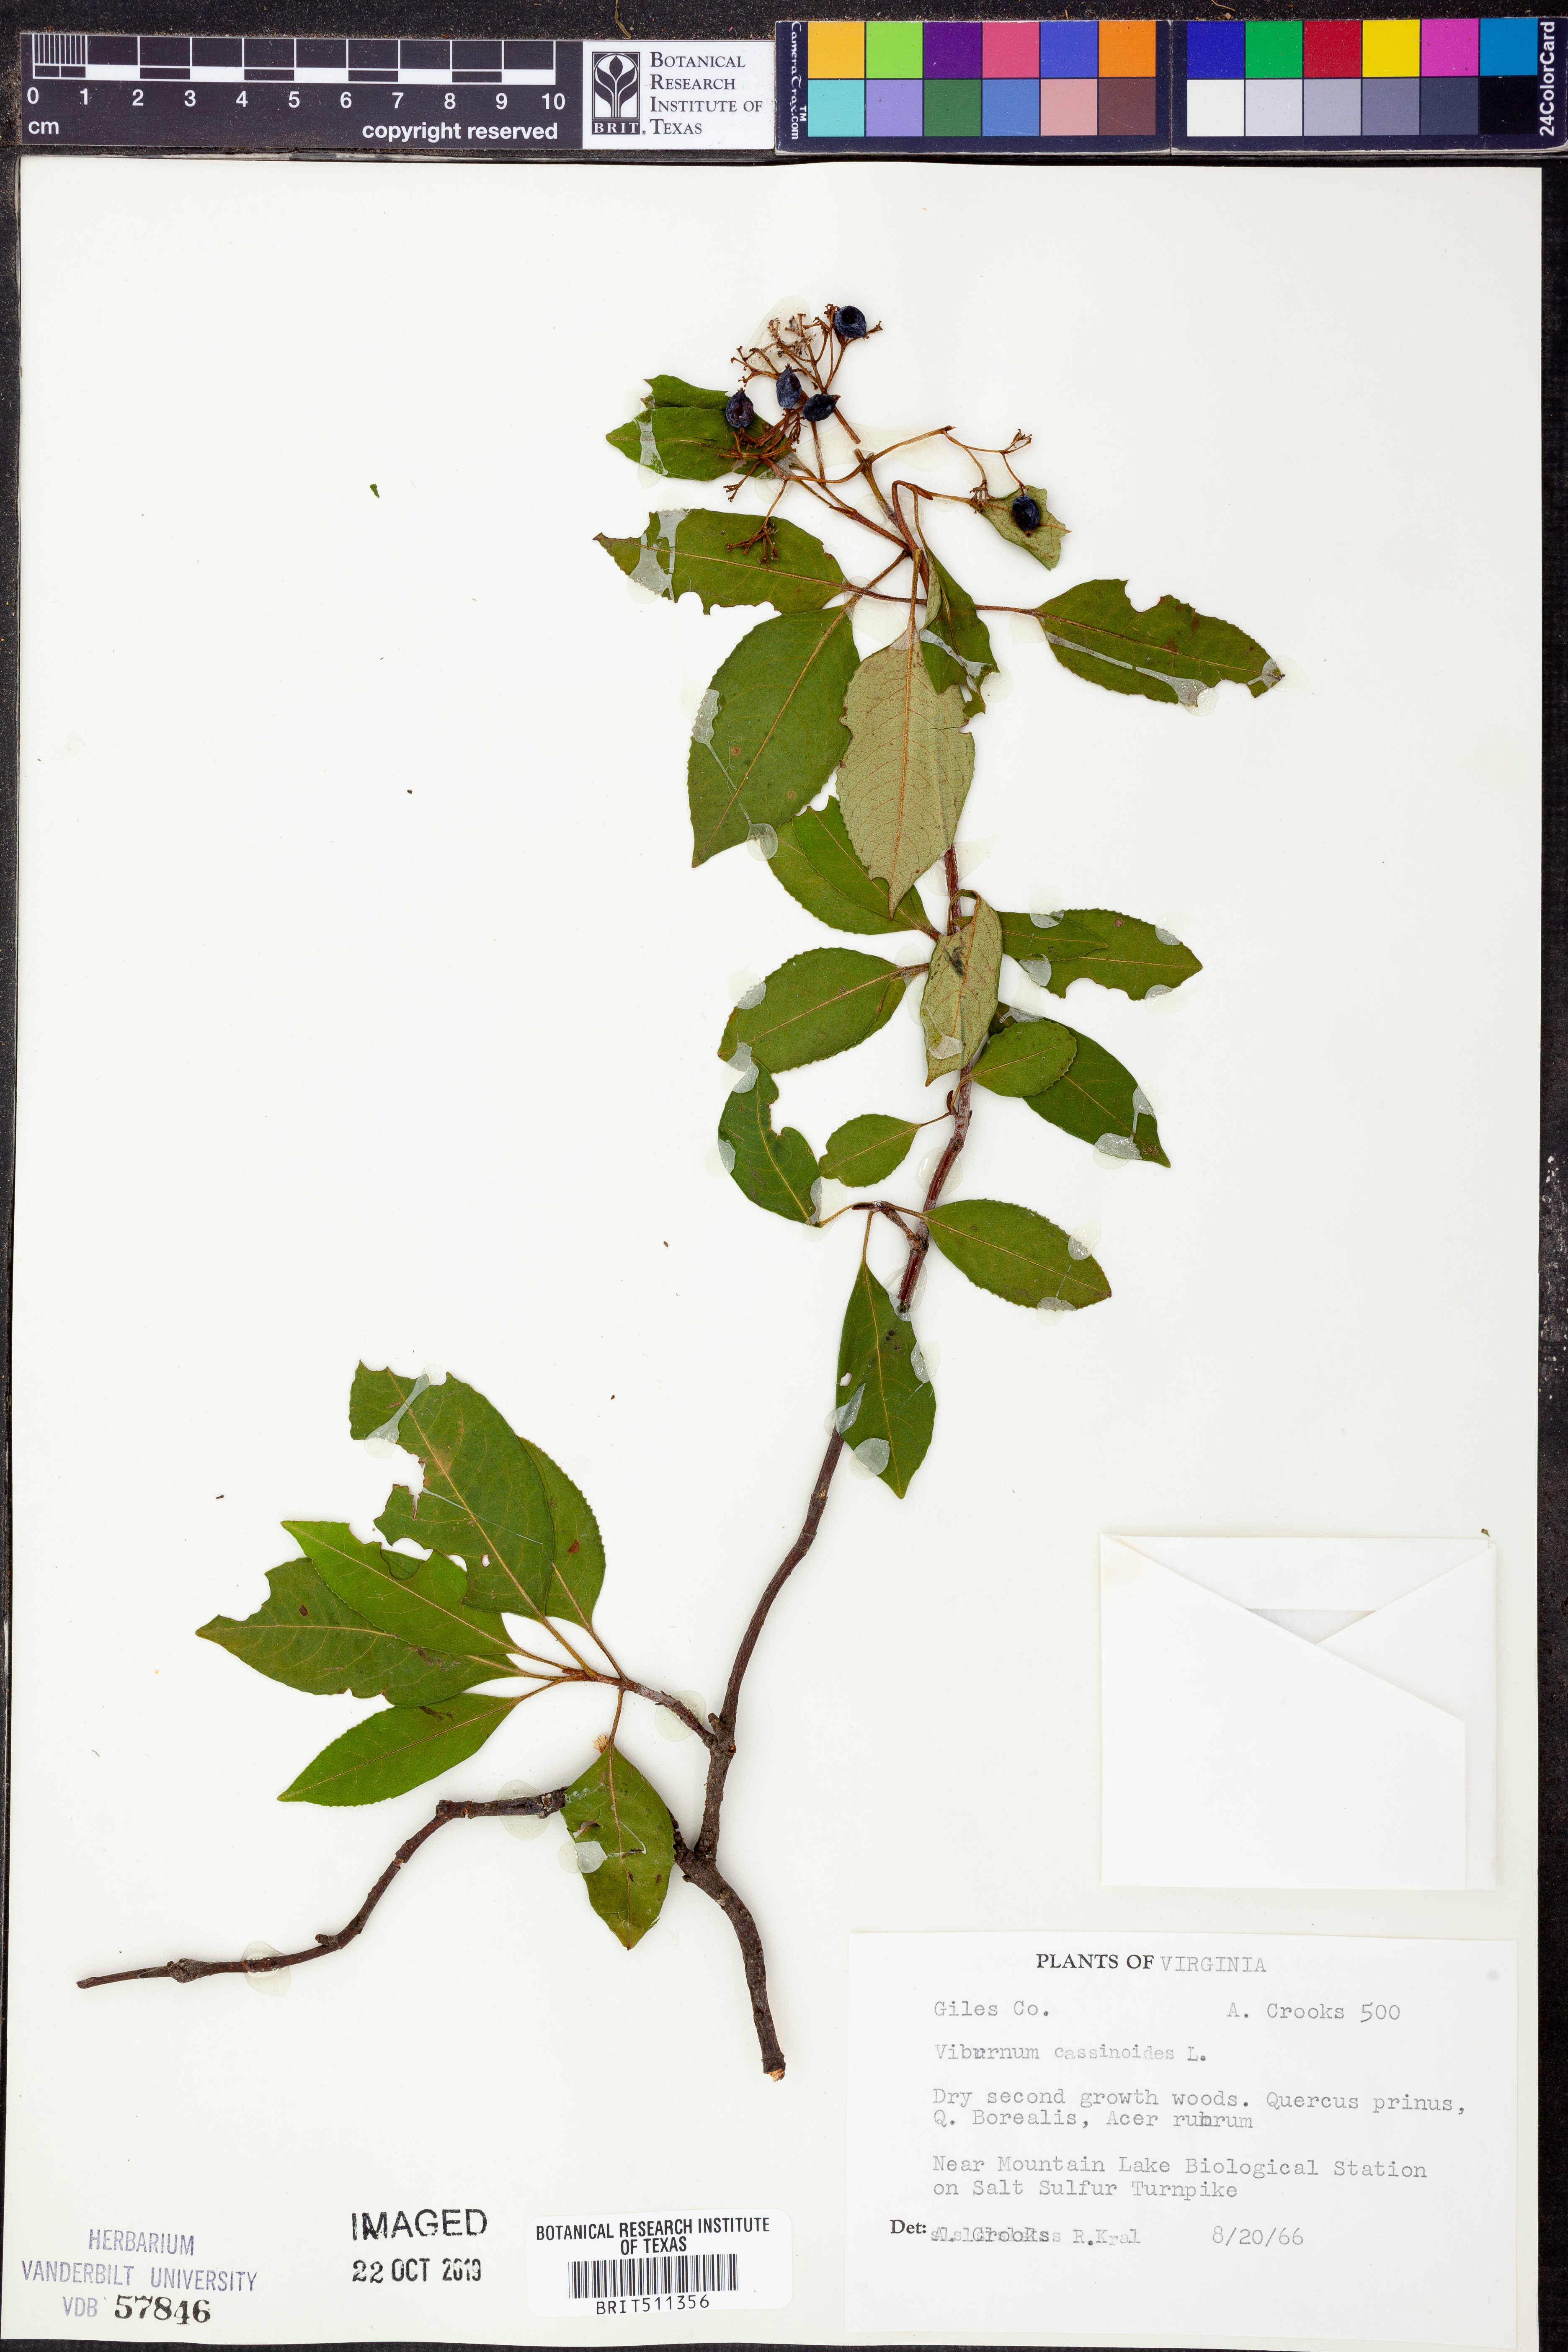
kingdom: Plantae
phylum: Tracheophyta
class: Magnoliopsida
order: Dipsacales
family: Viburnaceae
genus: Viburnum
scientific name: Viburnum cassinoides
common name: Swamp haw
